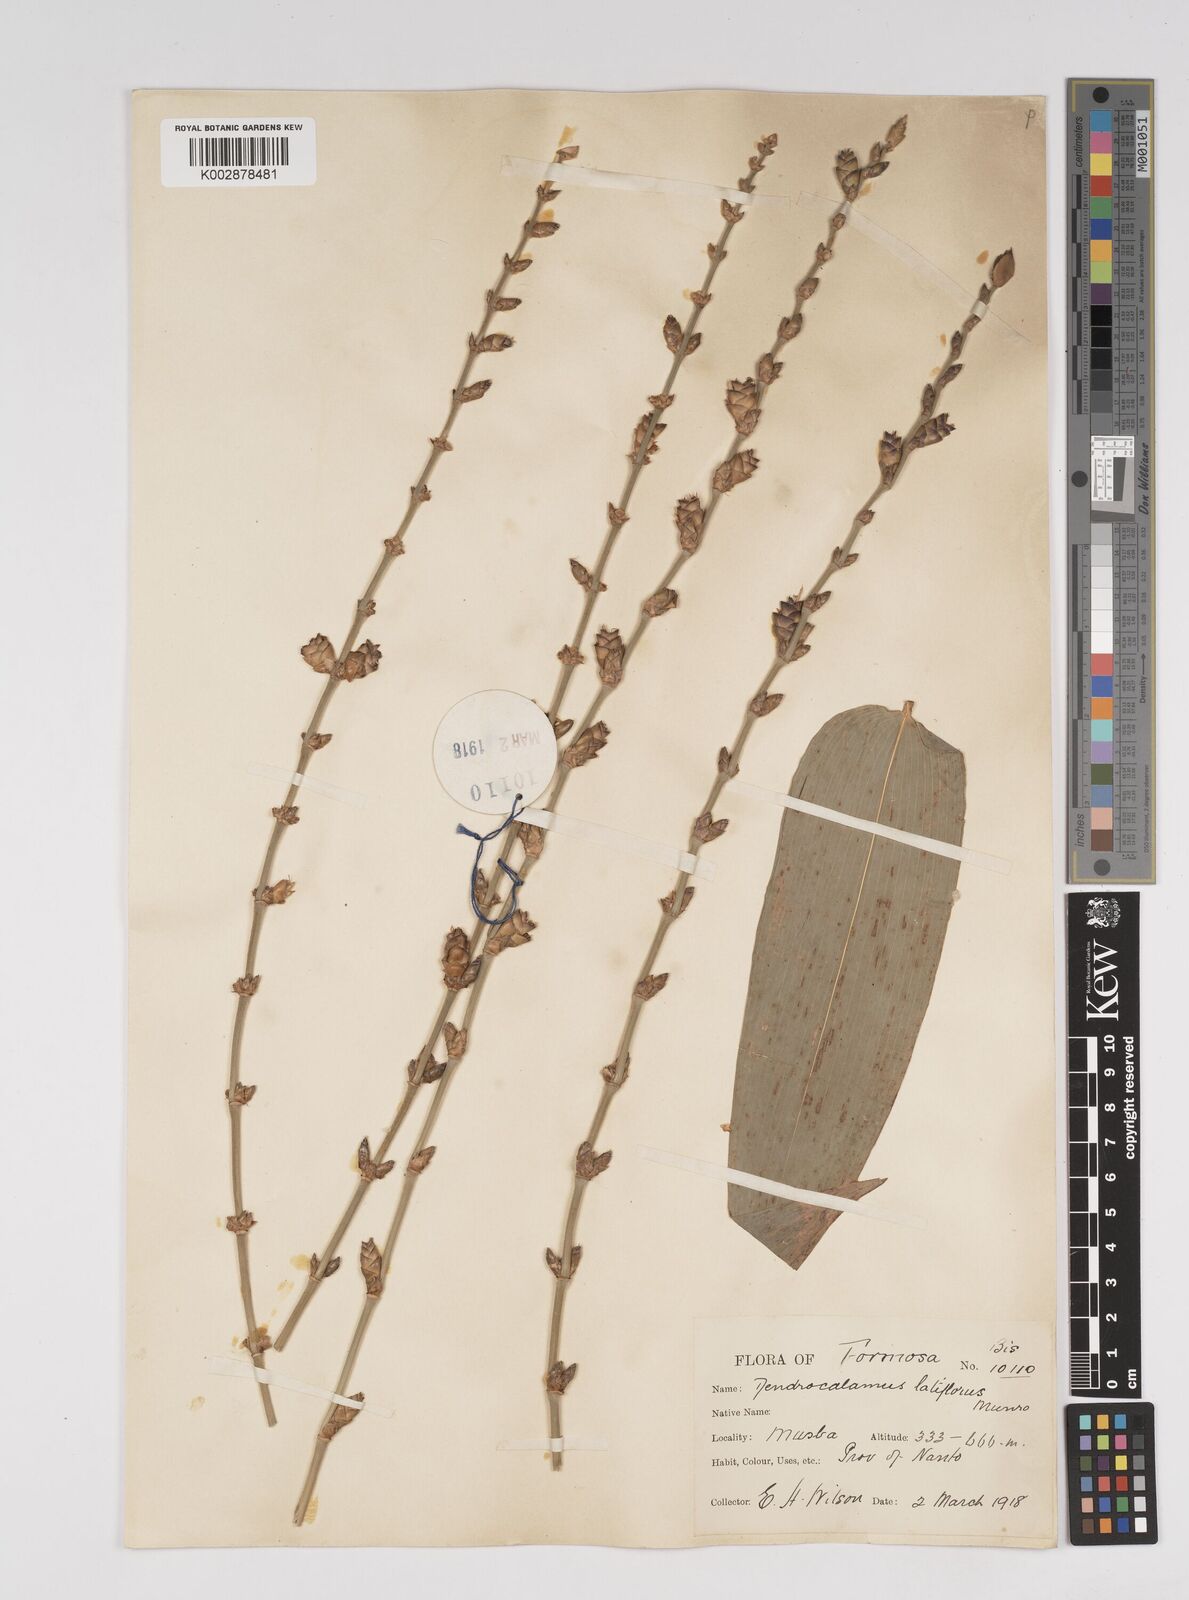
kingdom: Plantae
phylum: Tracheophyta
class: Liliopsida
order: Poales
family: Poaceae
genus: Dendrocalamus
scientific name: Dendrocalamus latiflorus
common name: Giant bamboo
